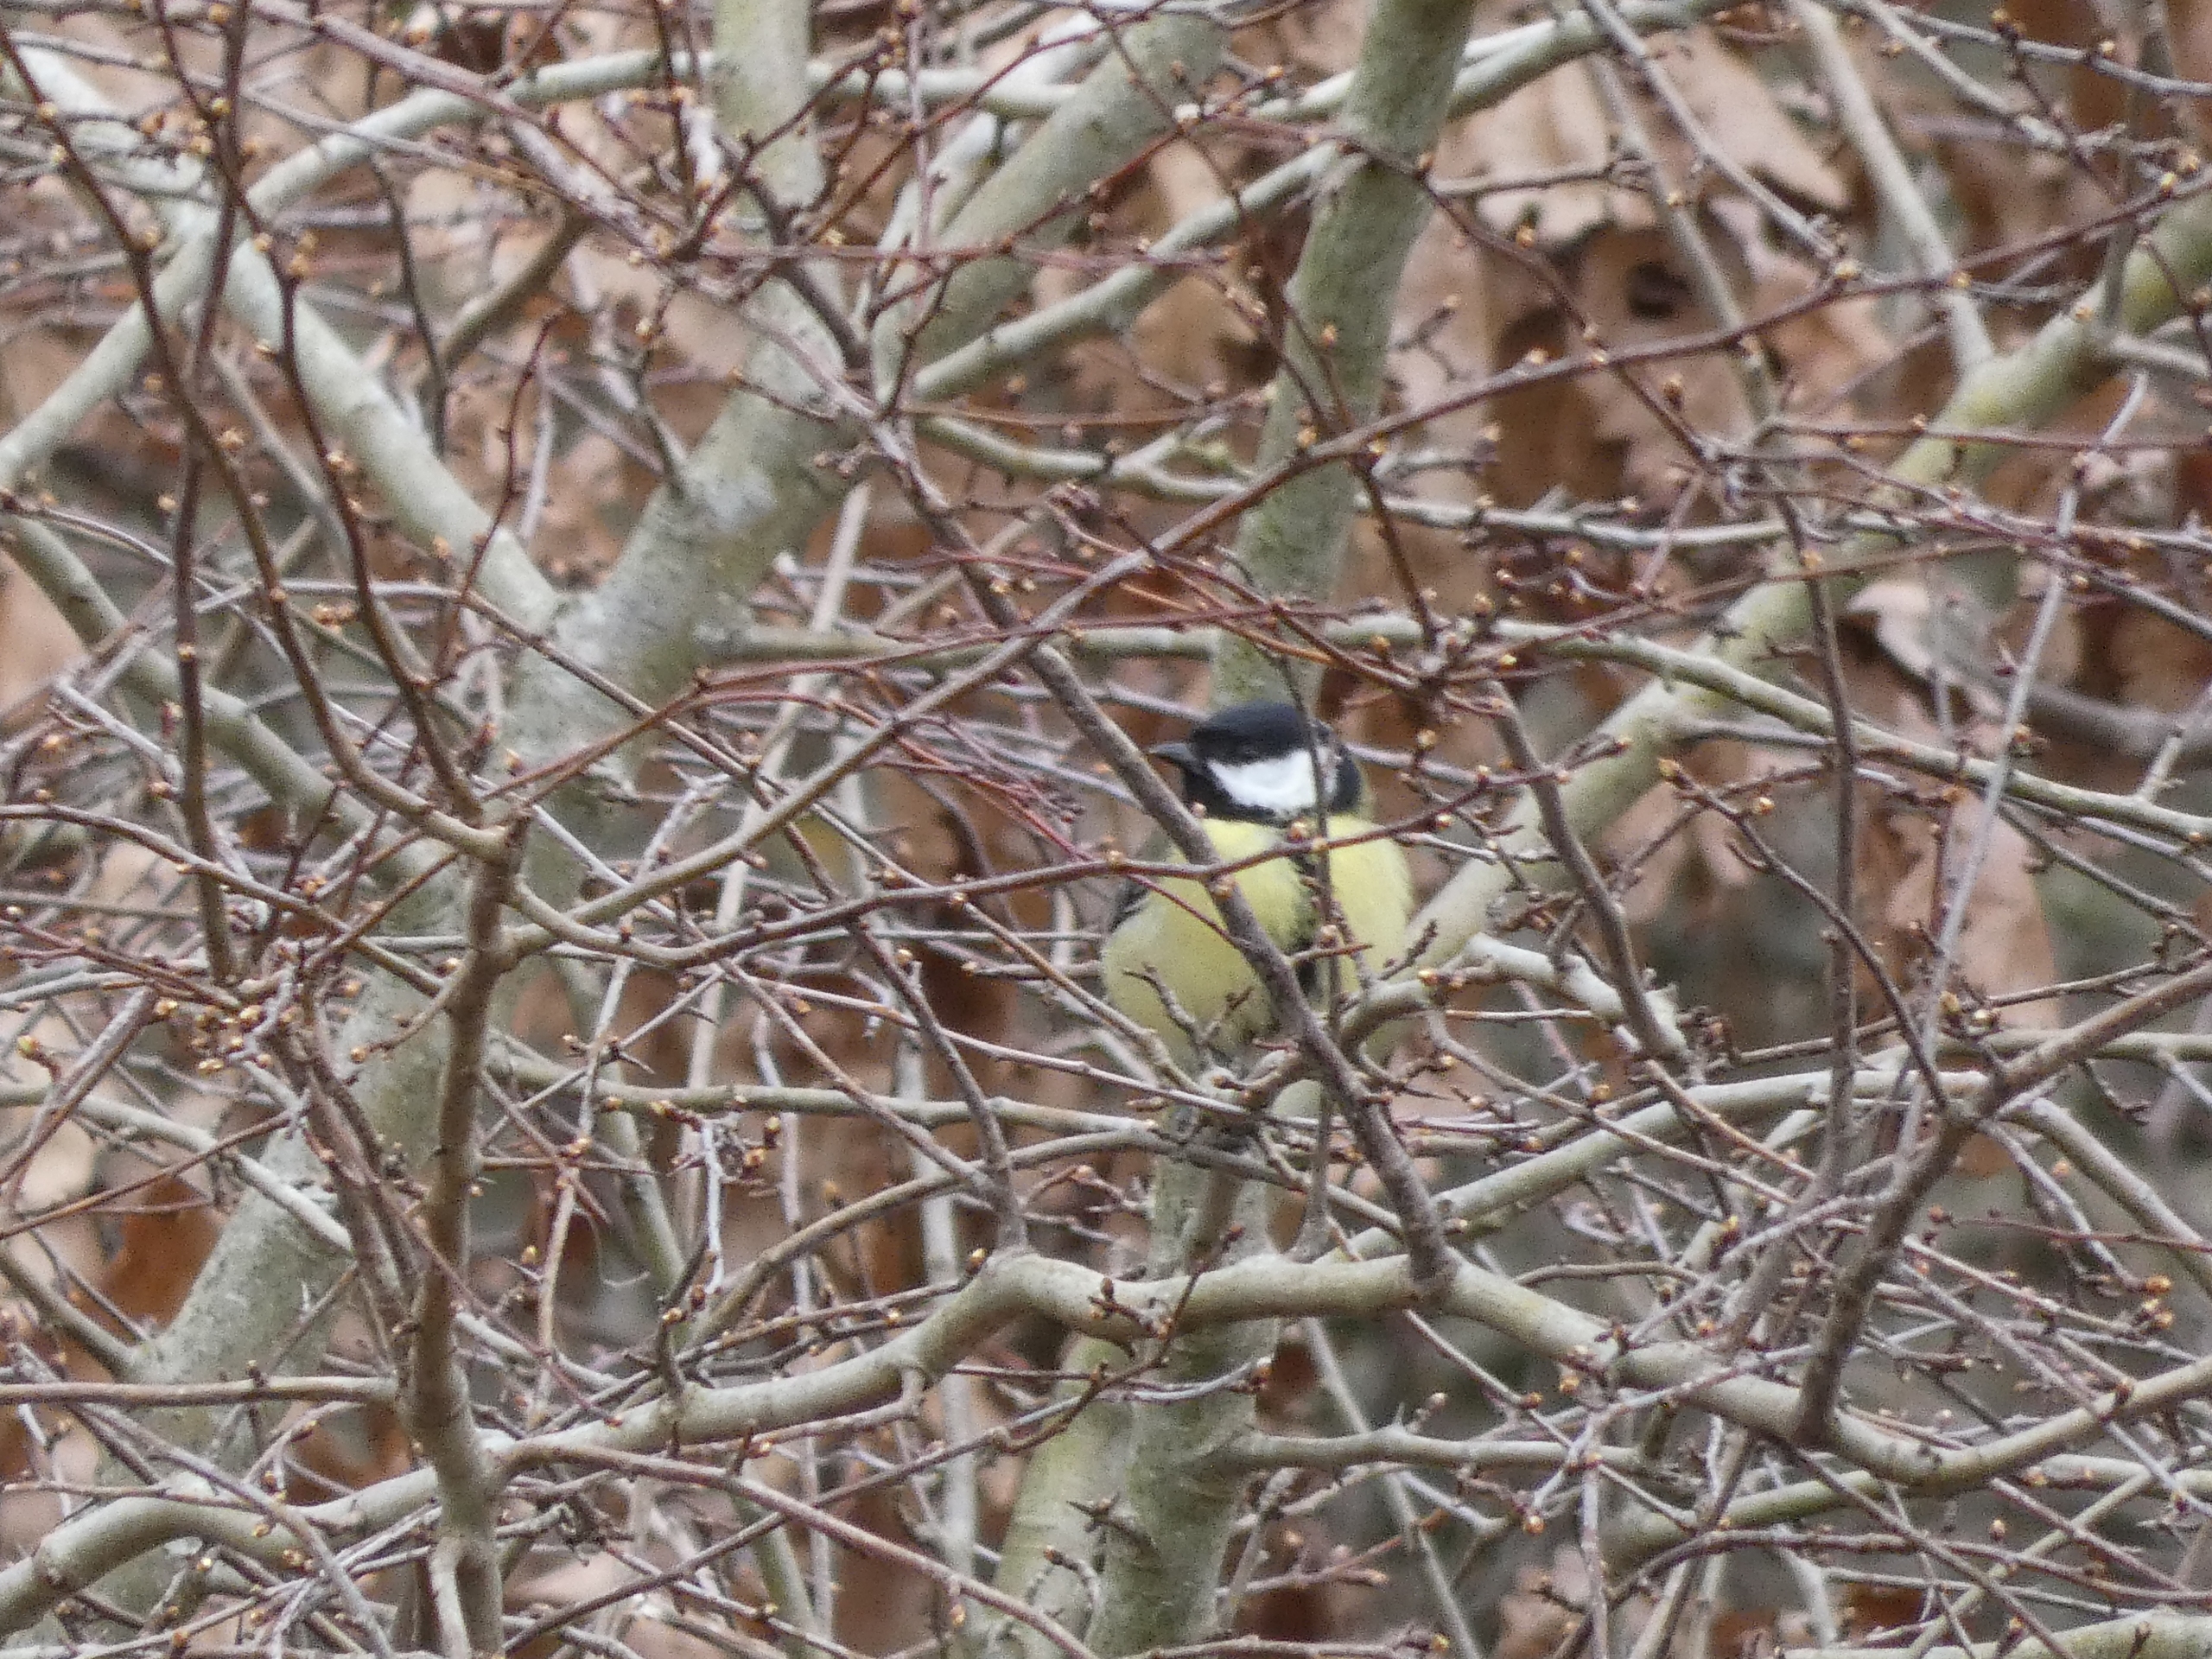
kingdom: Animalia
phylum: Chordata
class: Aves
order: Passeriformes
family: Paridae
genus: Parus
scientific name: Parus major
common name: Musvit
